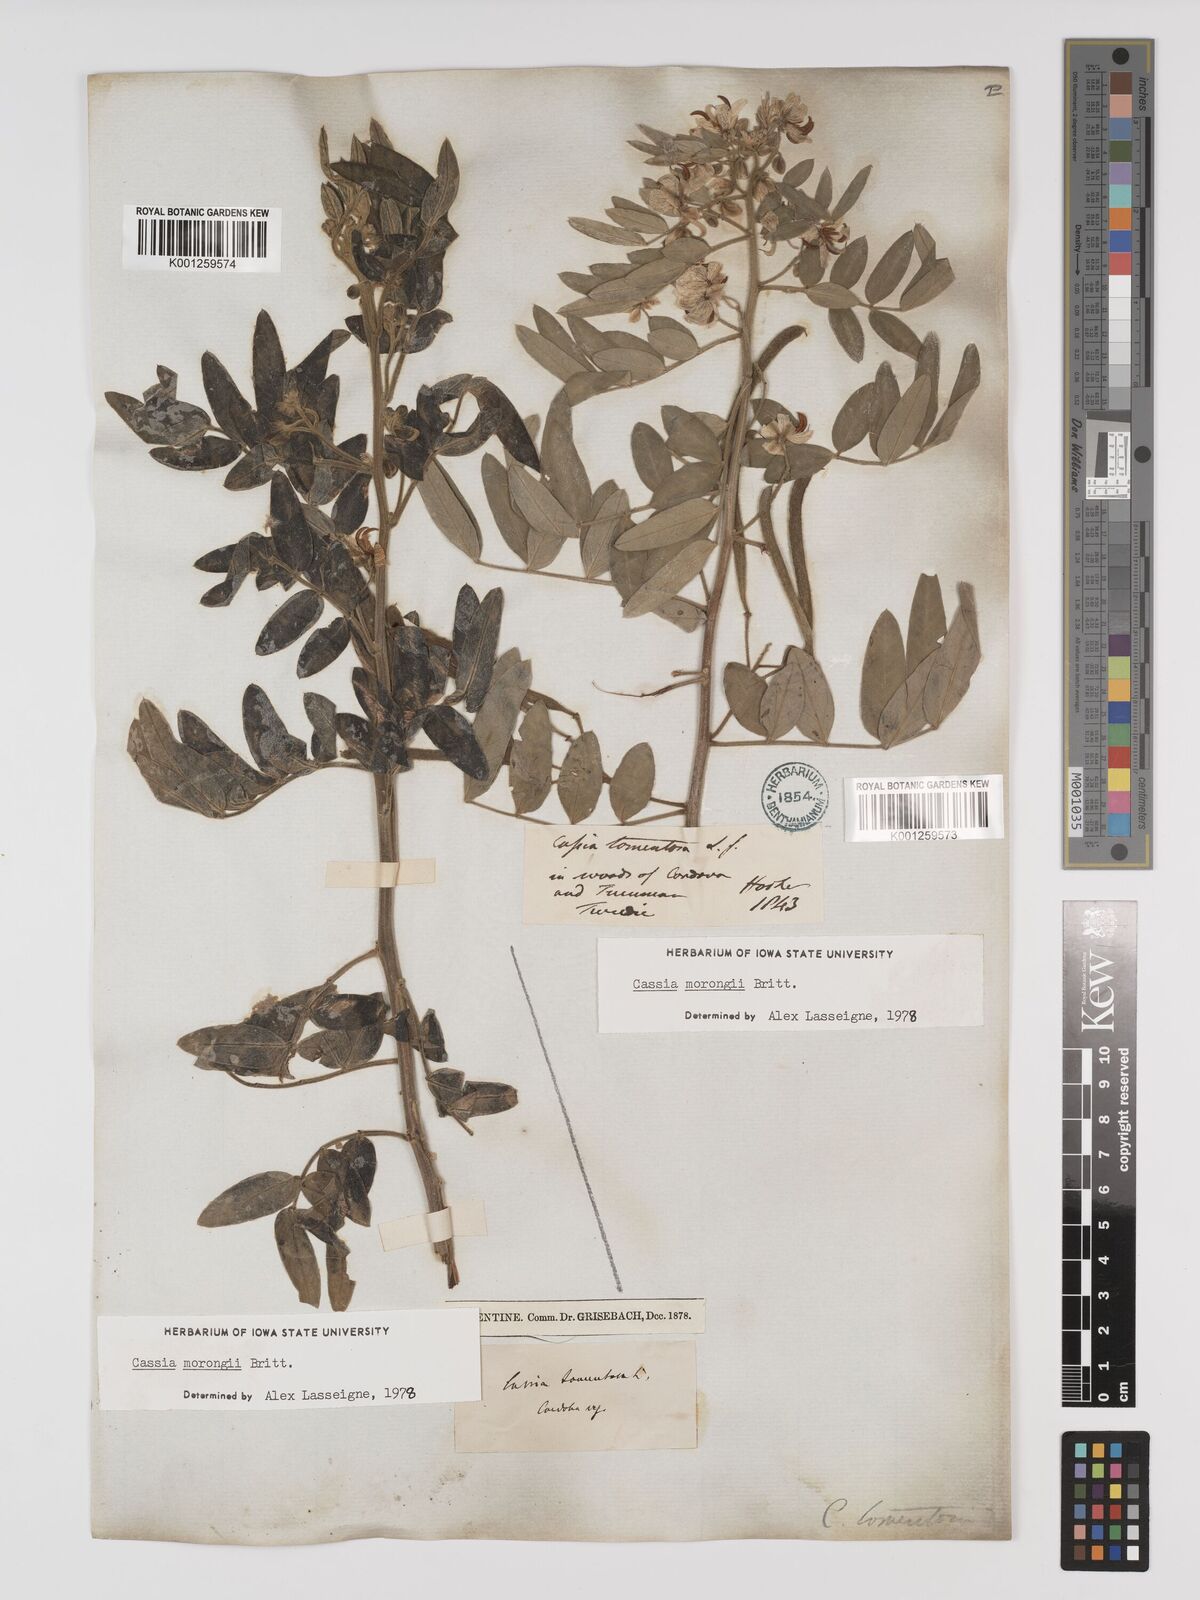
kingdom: Plantae
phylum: Tracheophyta
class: Magnoliopsida
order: Fabales
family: Fabaceae
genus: Senna
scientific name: Senna morongii
